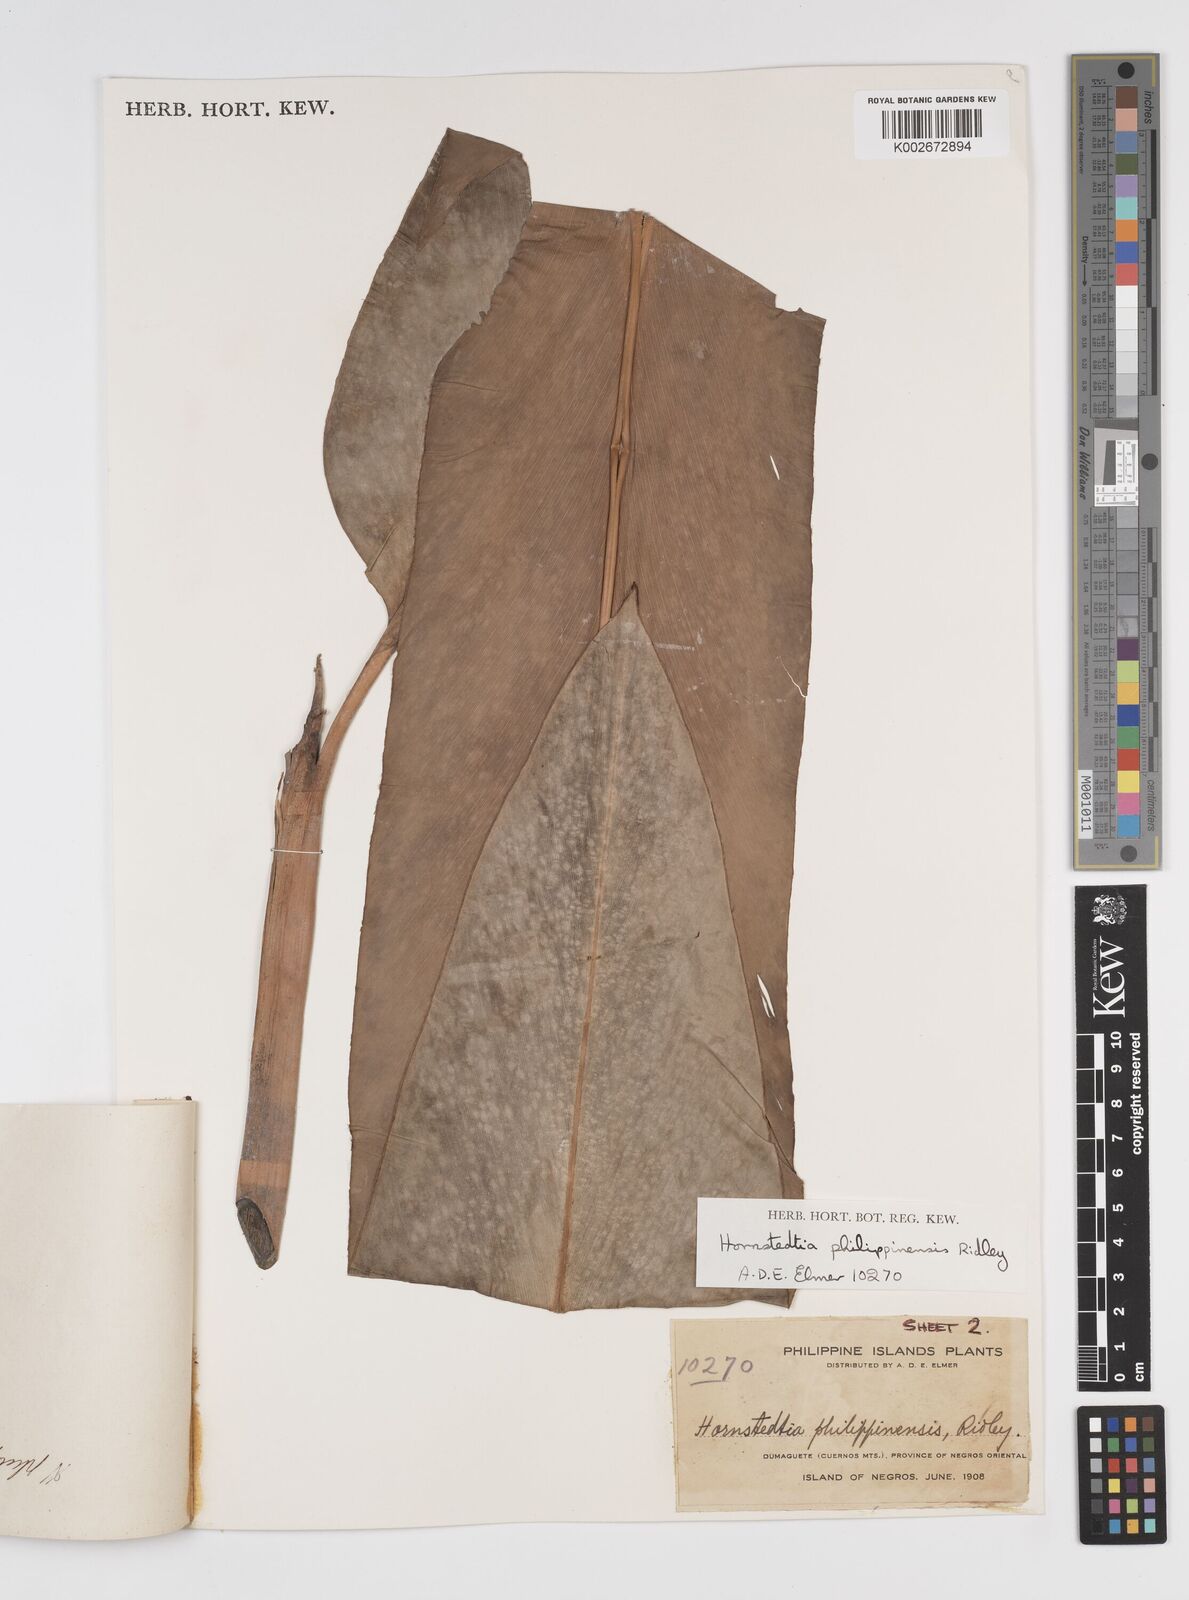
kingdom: Plantae
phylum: Tracheophyta
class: Liliopsida
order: Zingiberales
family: Zingiberaceae
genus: Etlingera
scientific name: Etlingera philippinensis
